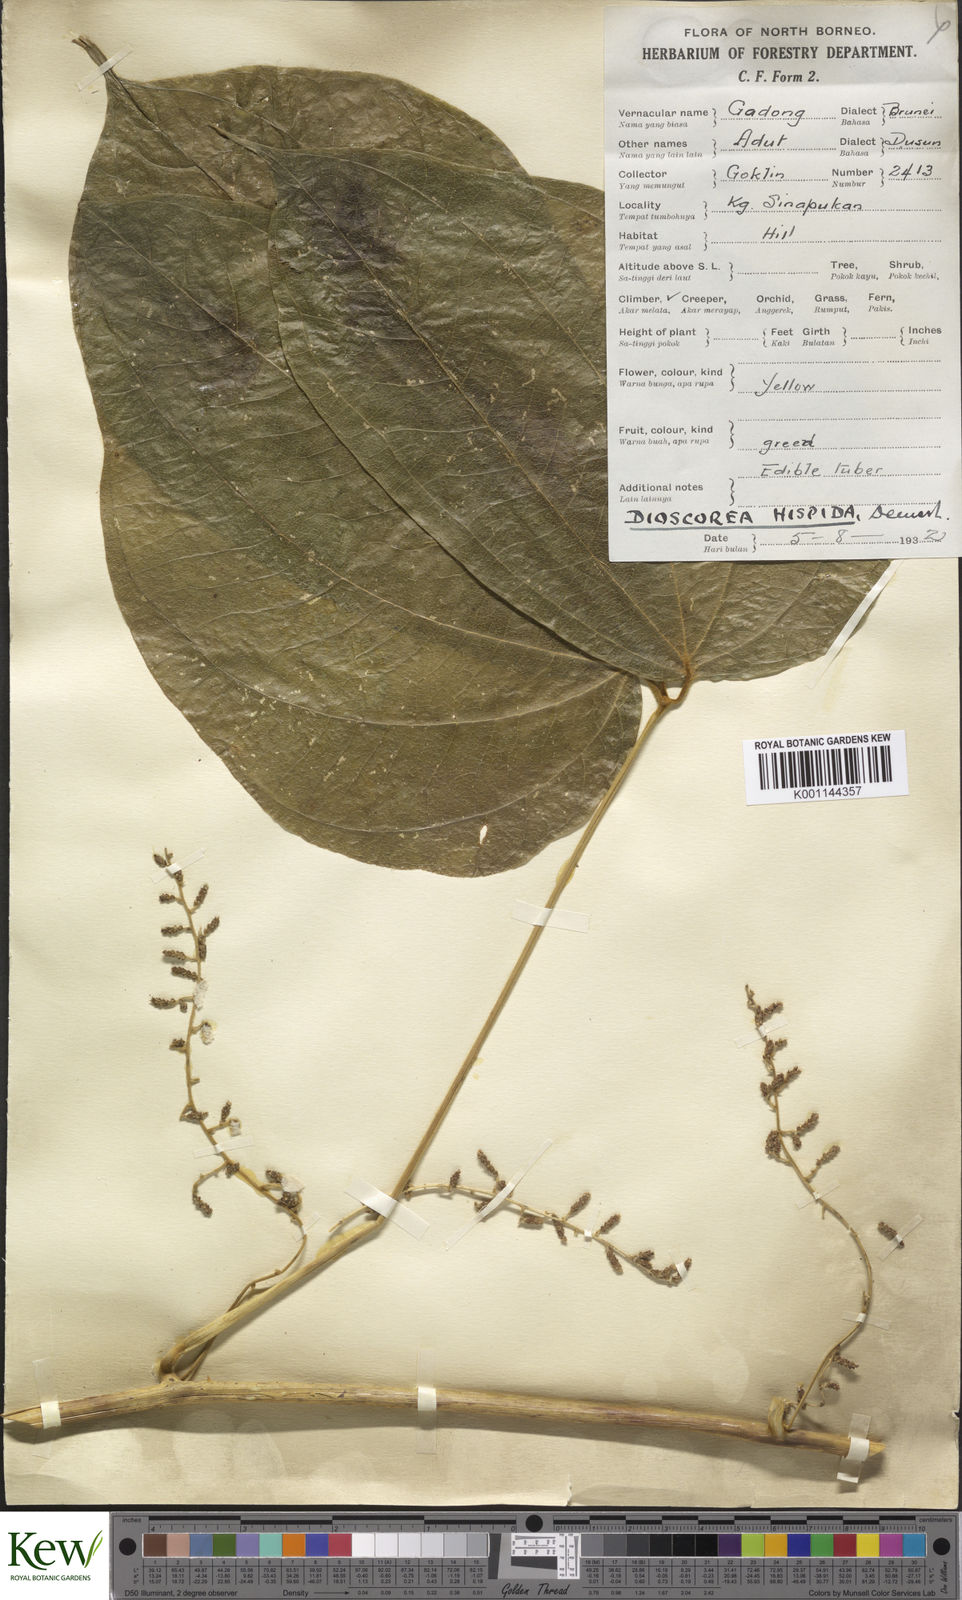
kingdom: Plantae
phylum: Tracheophyta
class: Liliopsida
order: Dioscoreales
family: Dioscoreaceae
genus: Dioscorea
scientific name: Dioscorea hispida
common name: Asiatic bitter yam
